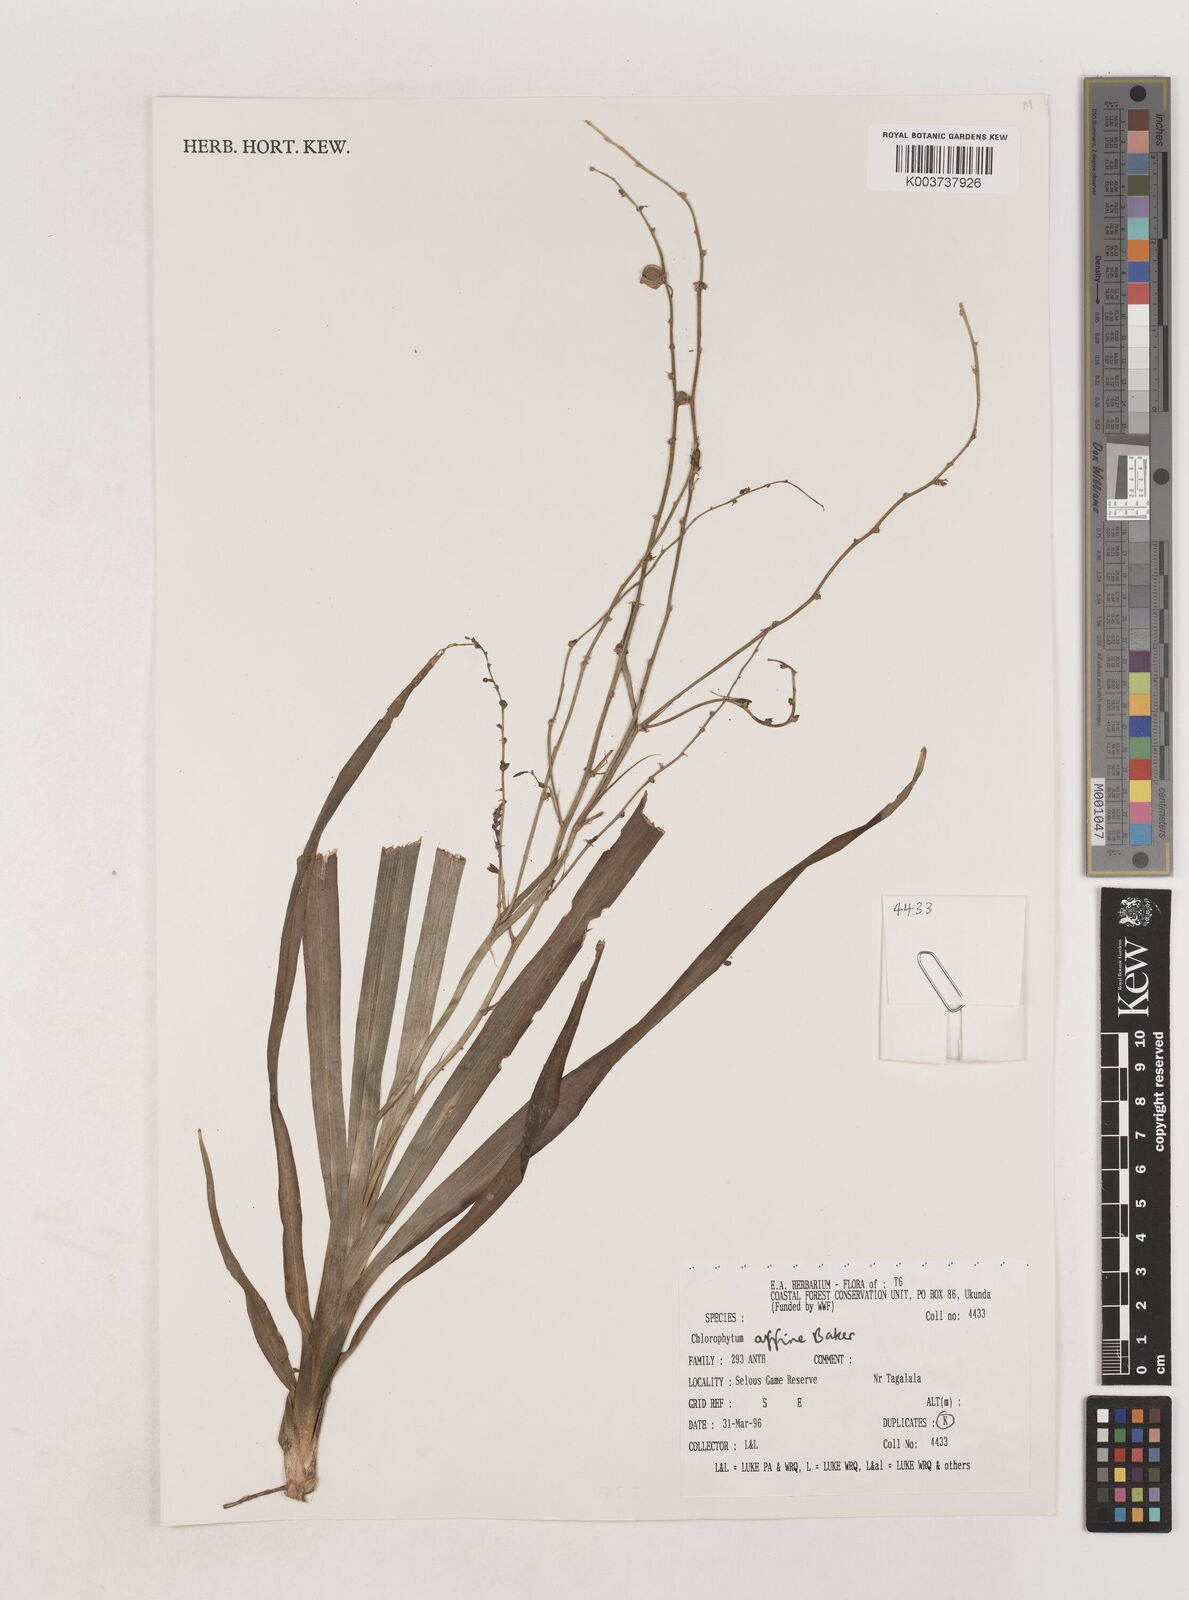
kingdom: Plantae
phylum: Tracheophyta
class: Liliopsida
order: Asparagales
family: Asparagaceae
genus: Chlorophytum
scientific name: Chlorophytum affine
